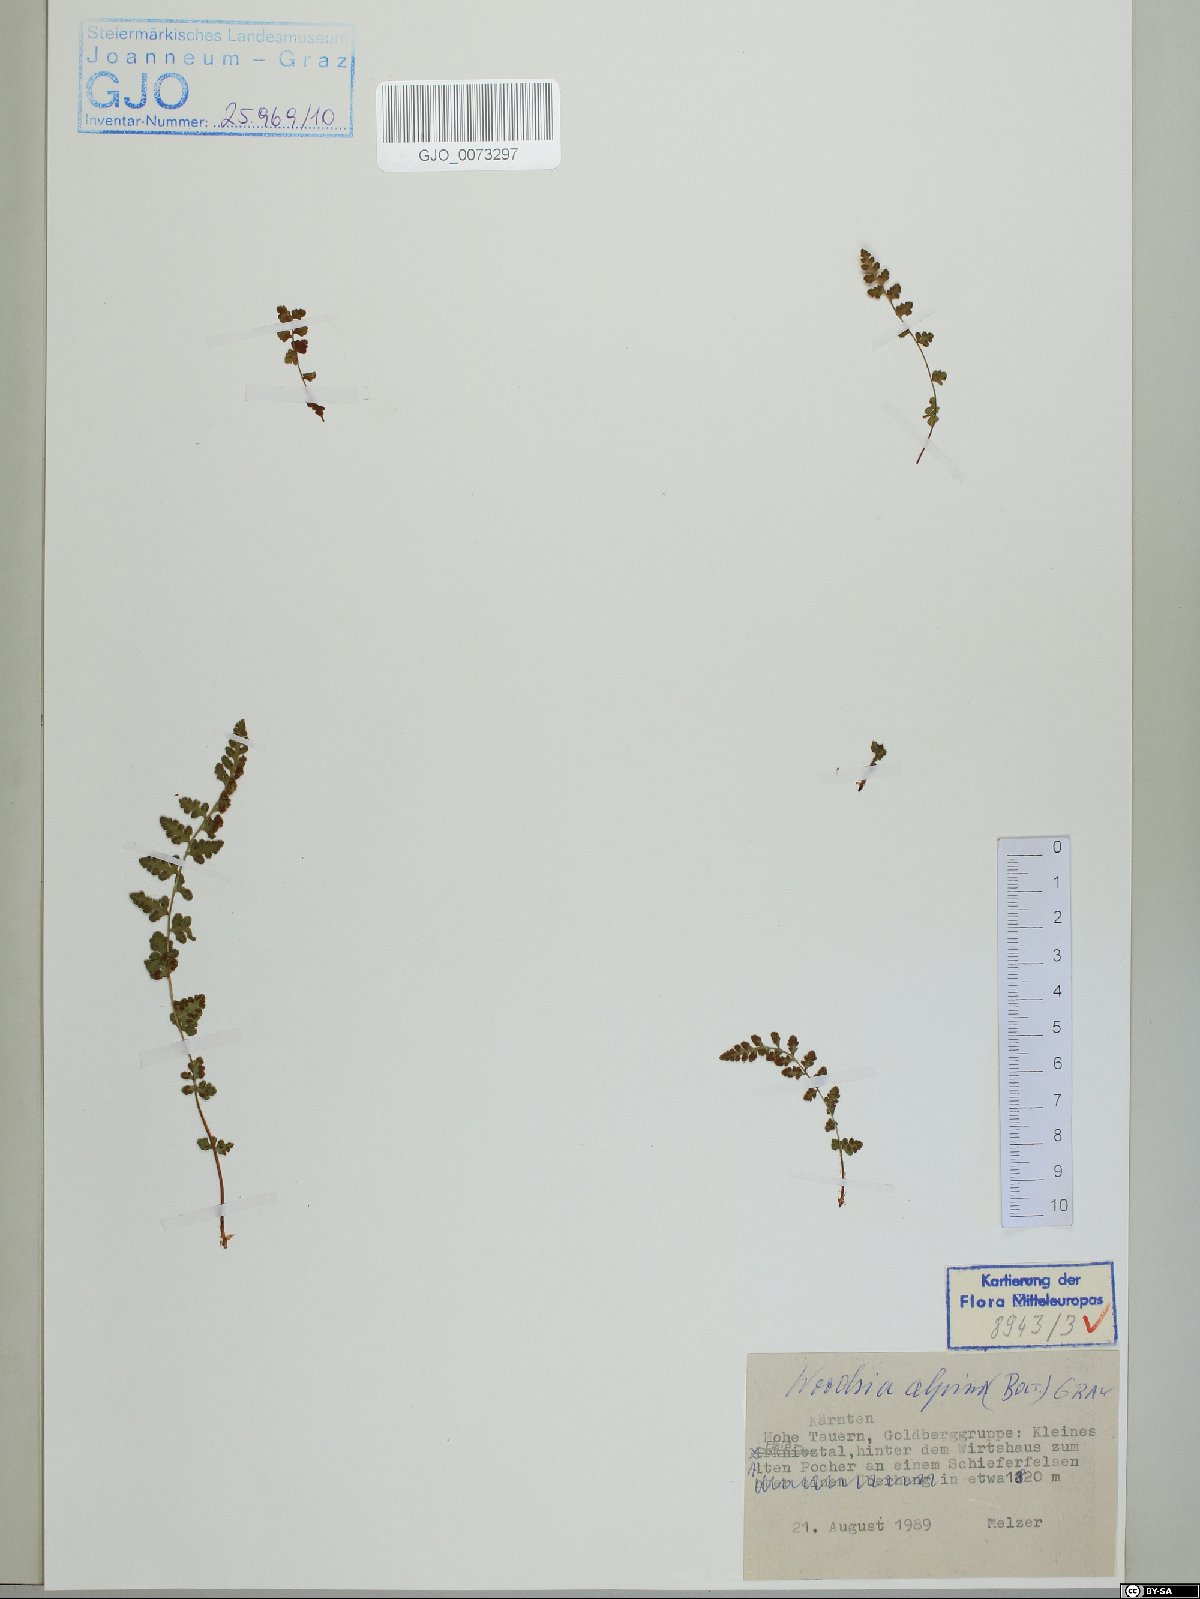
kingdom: Plantae
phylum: Tracheophyta
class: Polypodiopsida
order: Polypodiales
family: Woodsiaceae
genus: Woodsia
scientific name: Woodsia alpina
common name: Alpine woodsia
